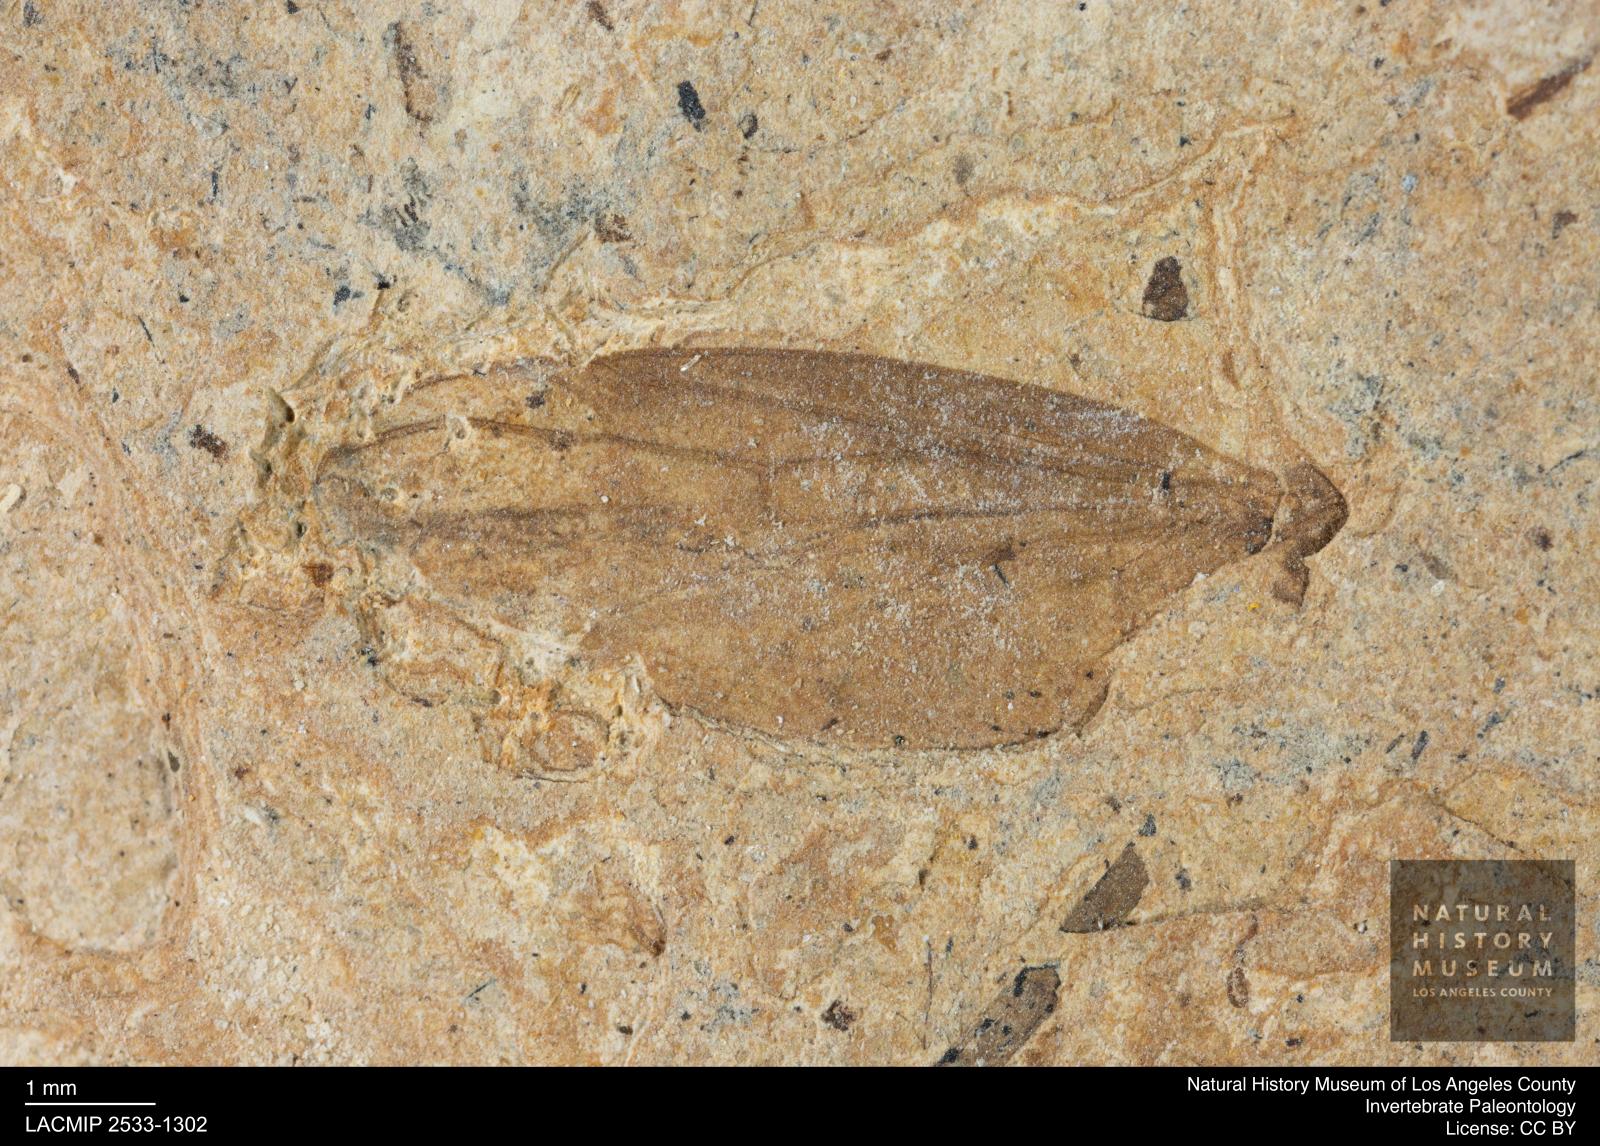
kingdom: Animalia
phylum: Arthropoda
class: Insecta
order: Diptera
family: Bibionidae
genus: Plecia
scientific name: Plecia grossa
